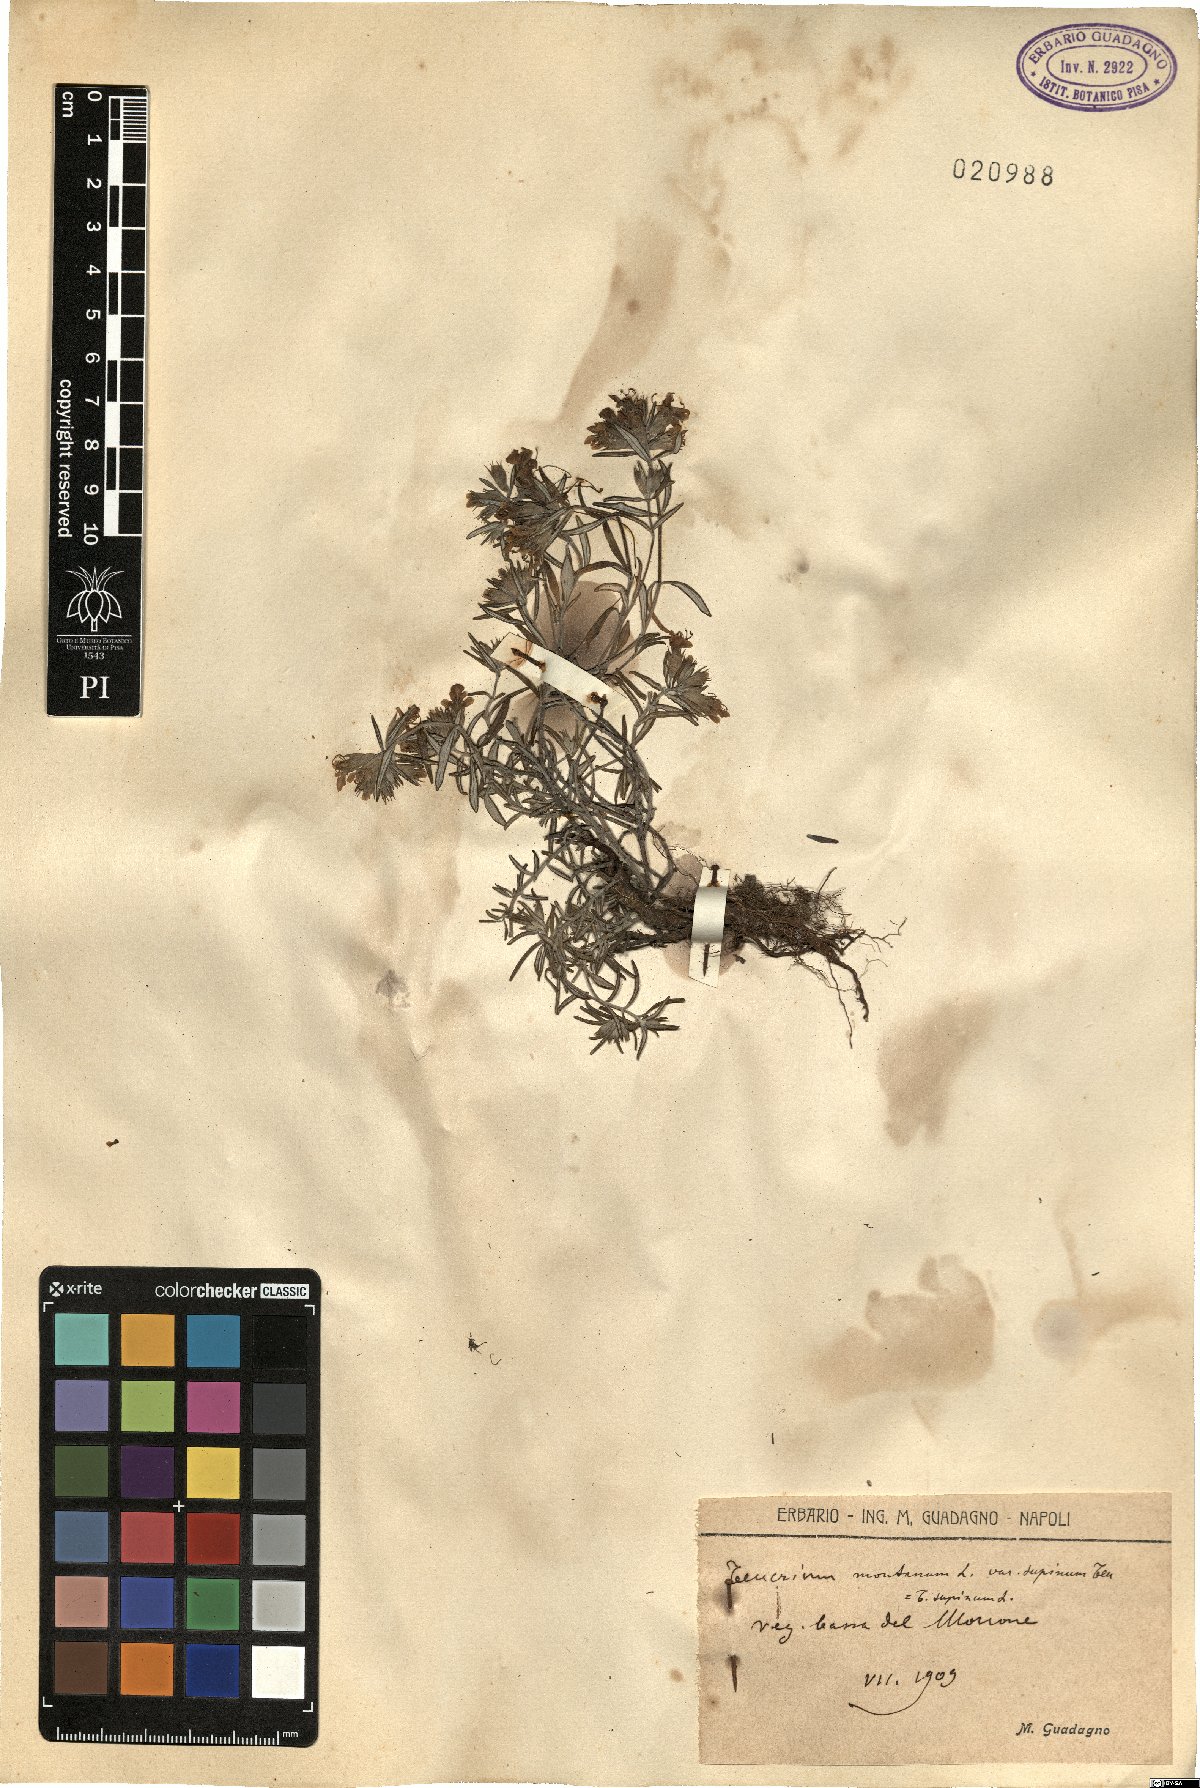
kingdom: Plantae
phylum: Tracheophyta
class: Magnoliopsida
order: Lamiales
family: Lamiaceae
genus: Teucrium
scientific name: Teucrium montanum
